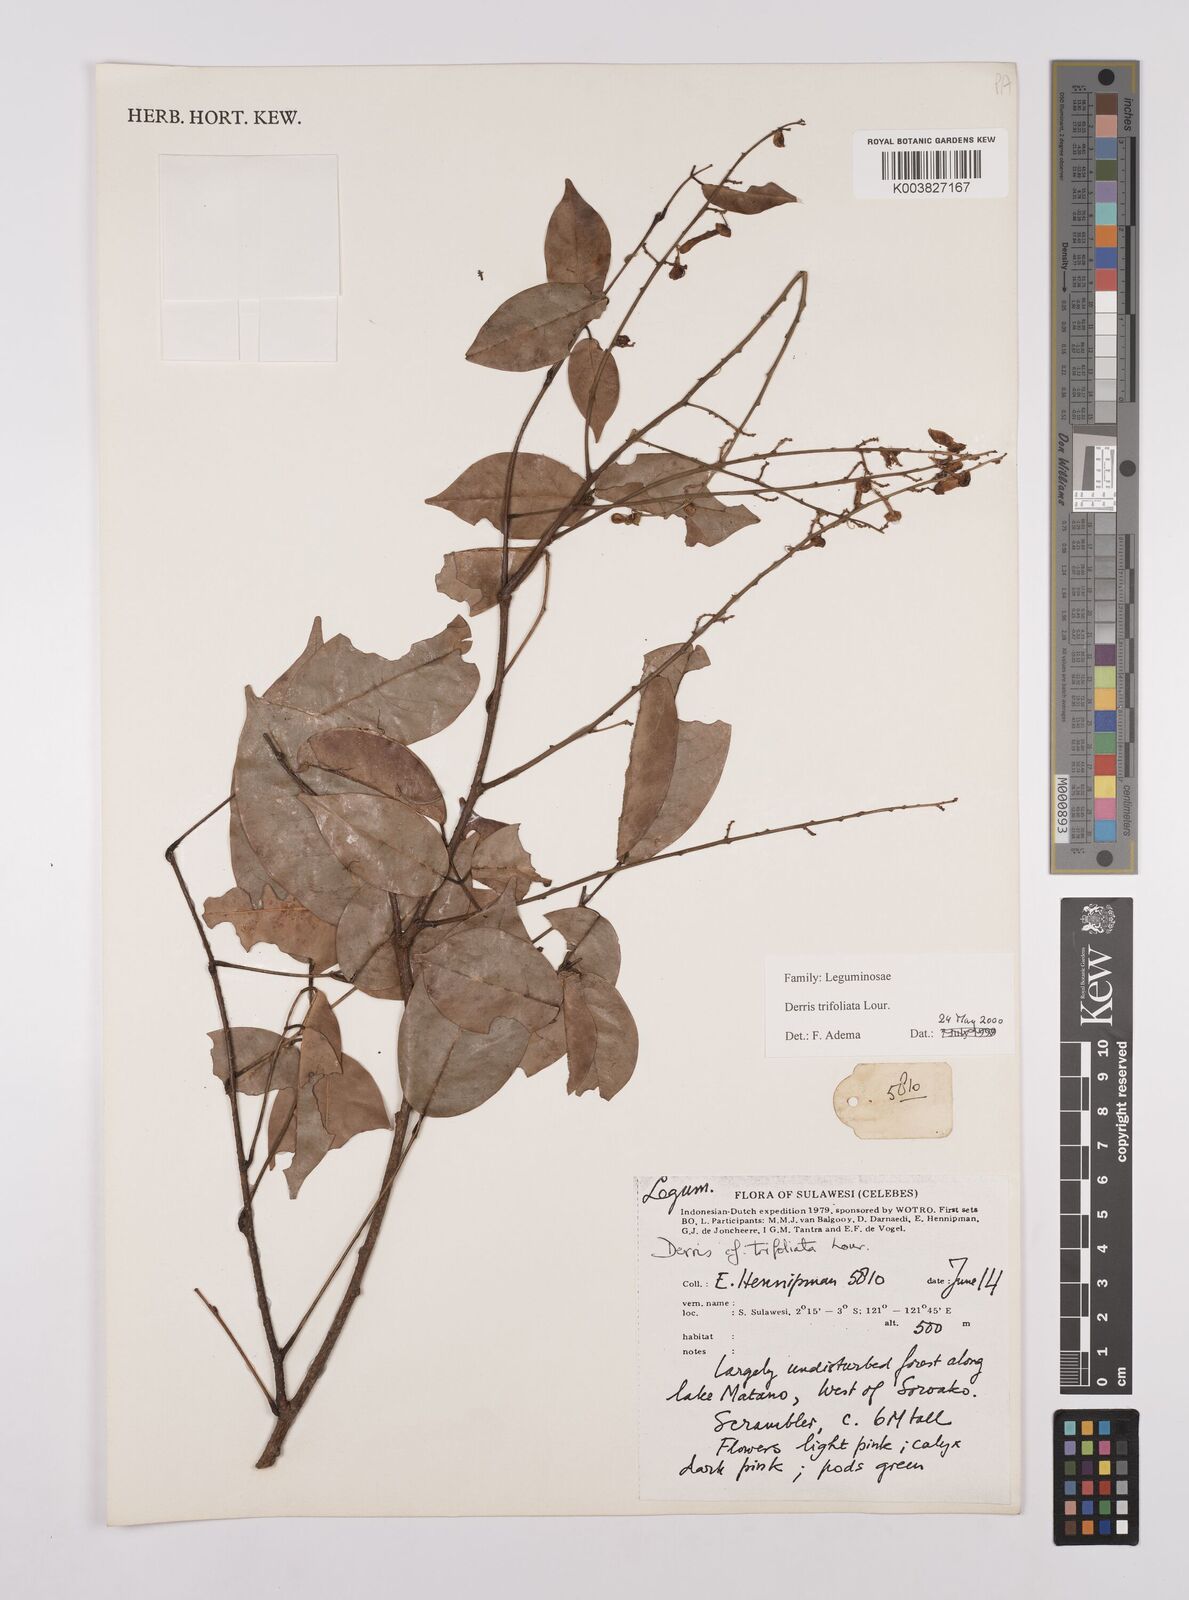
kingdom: Plantae
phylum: Tracheophyta
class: Magnoliopsida
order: Fabales
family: Fabaceae
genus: Derris
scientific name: Derris trifoliata
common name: Three-leaf derris
